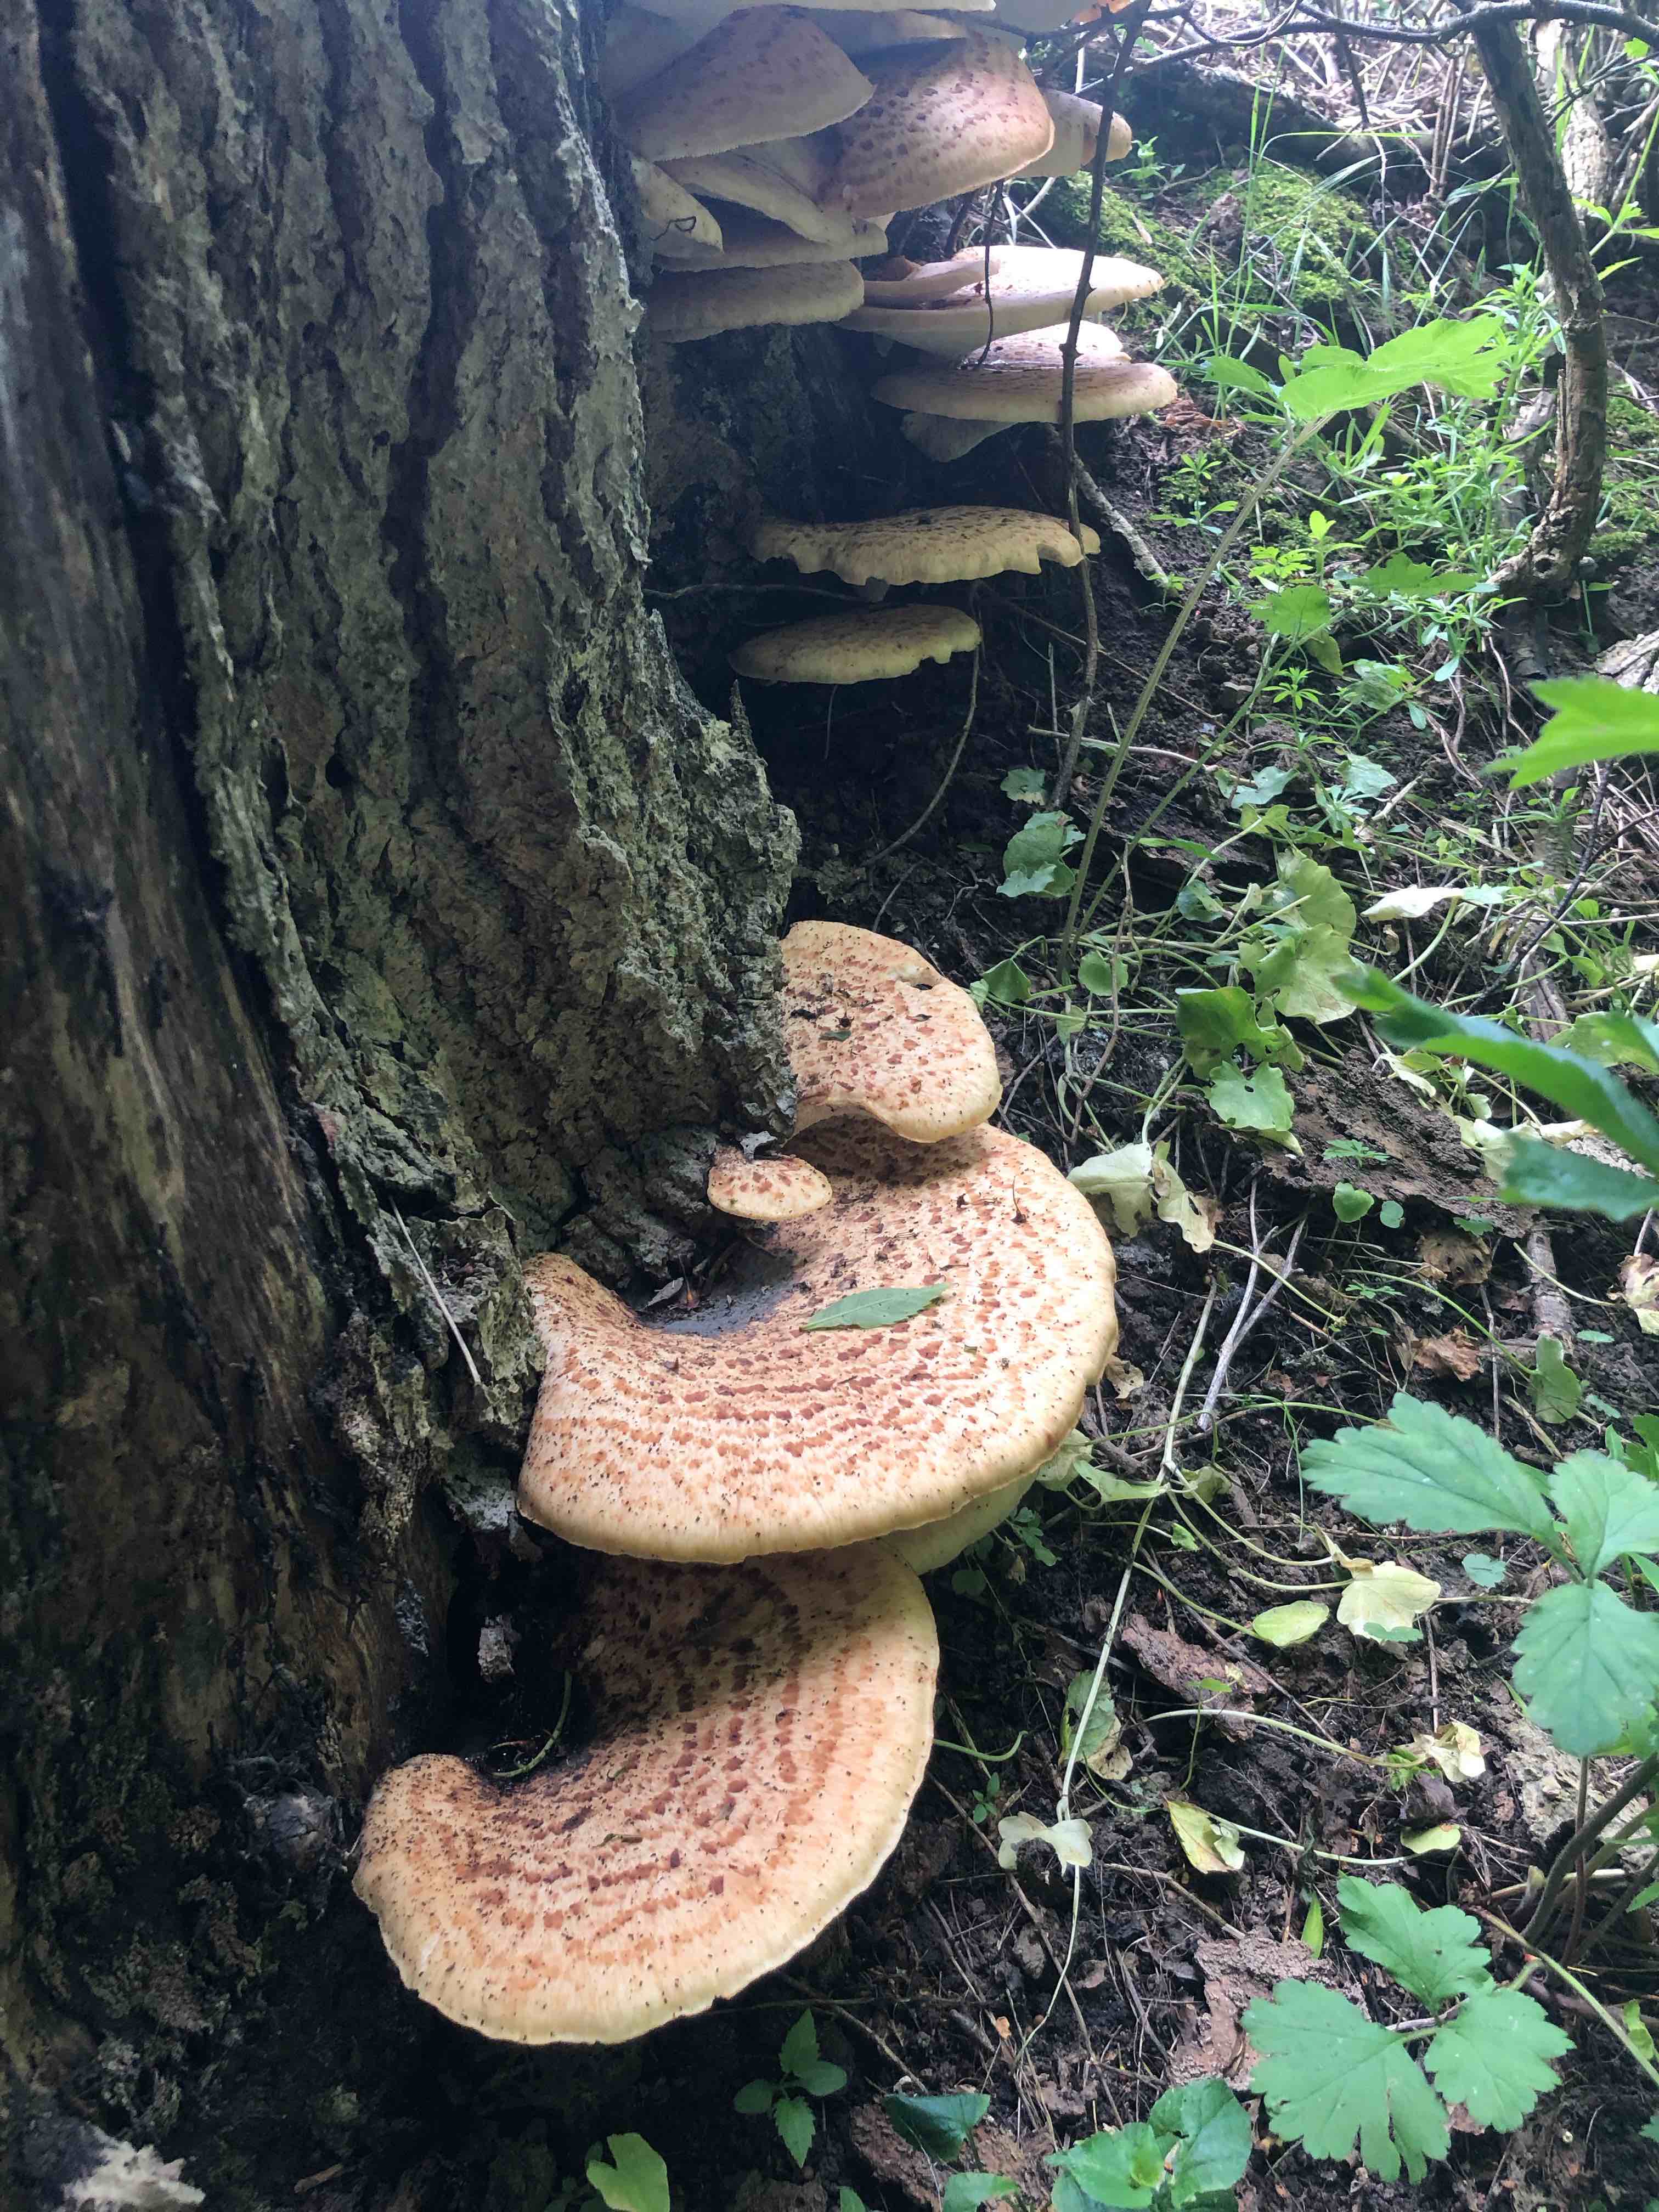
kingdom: Fungi
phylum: Basidiomycota
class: Agaricomycetes
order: Polyporales
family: Polyporaceae
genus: Cerioporus
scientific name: Cerioporus squamosus
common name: skællet stilkporesvamp
